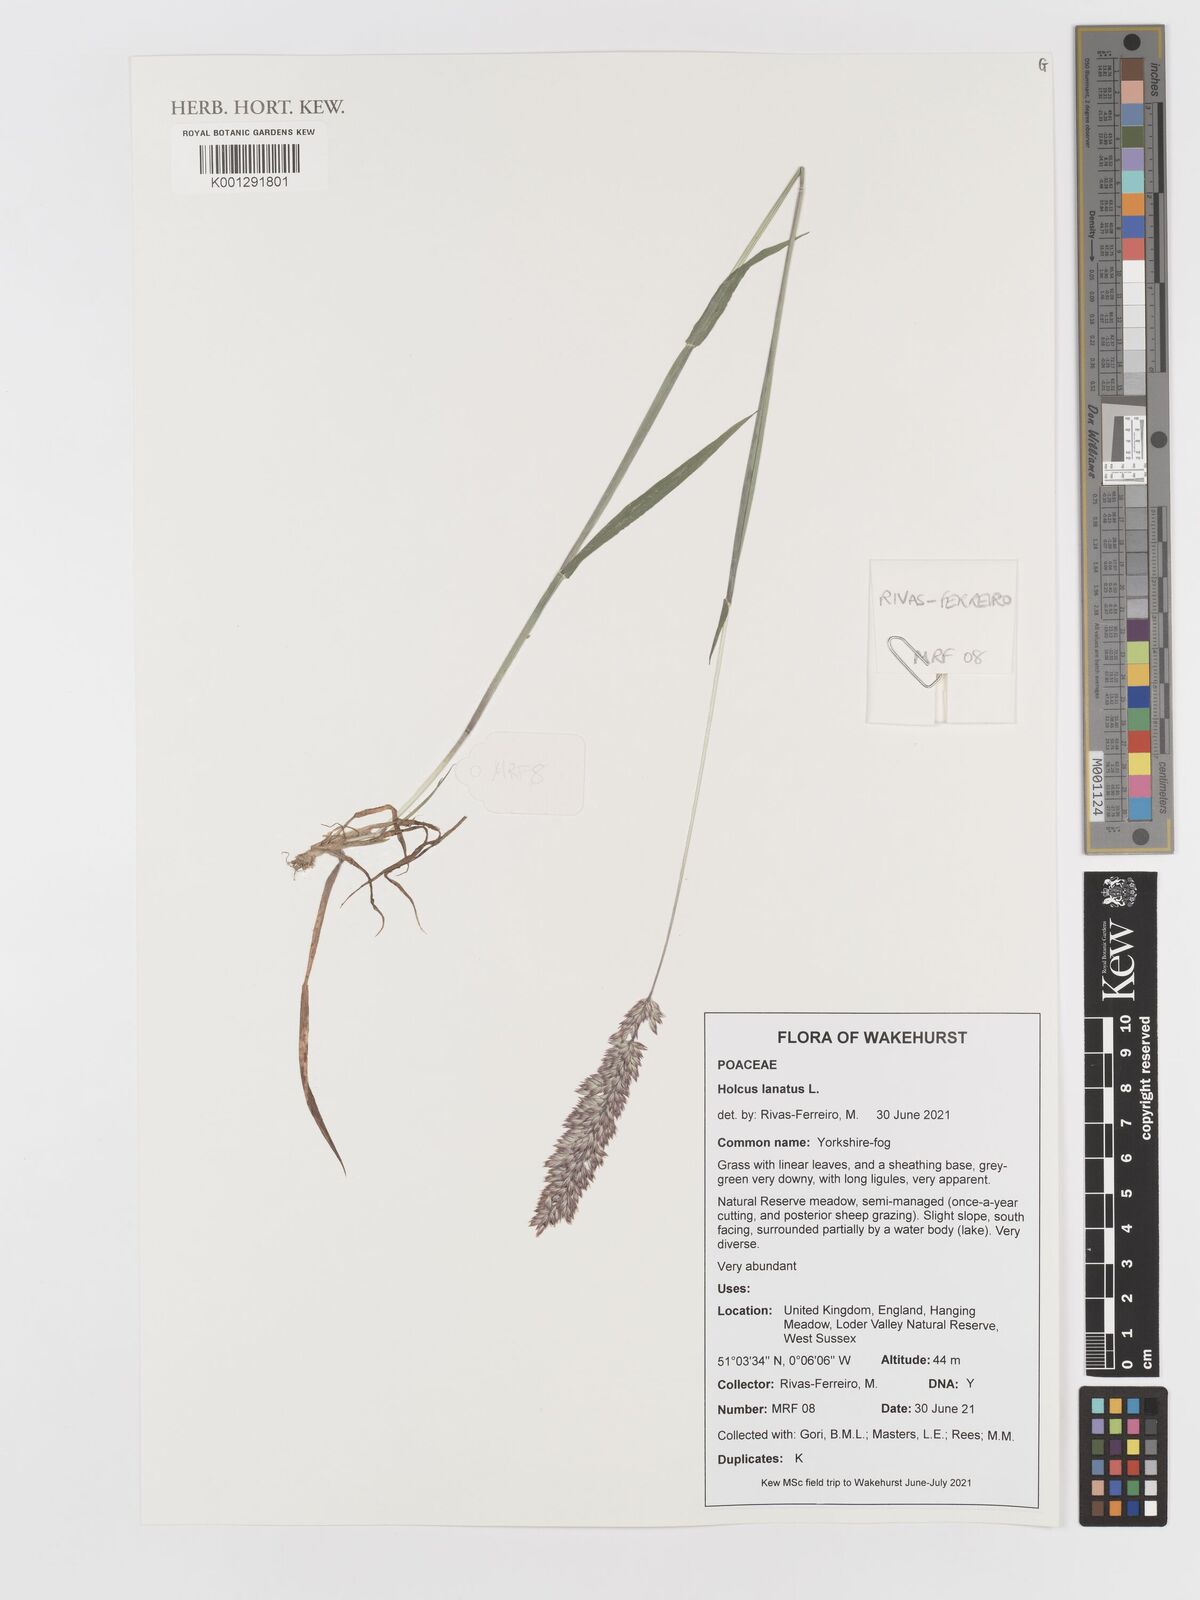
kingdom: Plantae
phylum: Tracheophyta
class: Liliopsida
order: Poales
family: Poaceae
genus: Holcus
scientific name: Holcus lanatus
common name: Yorkshire-fog
